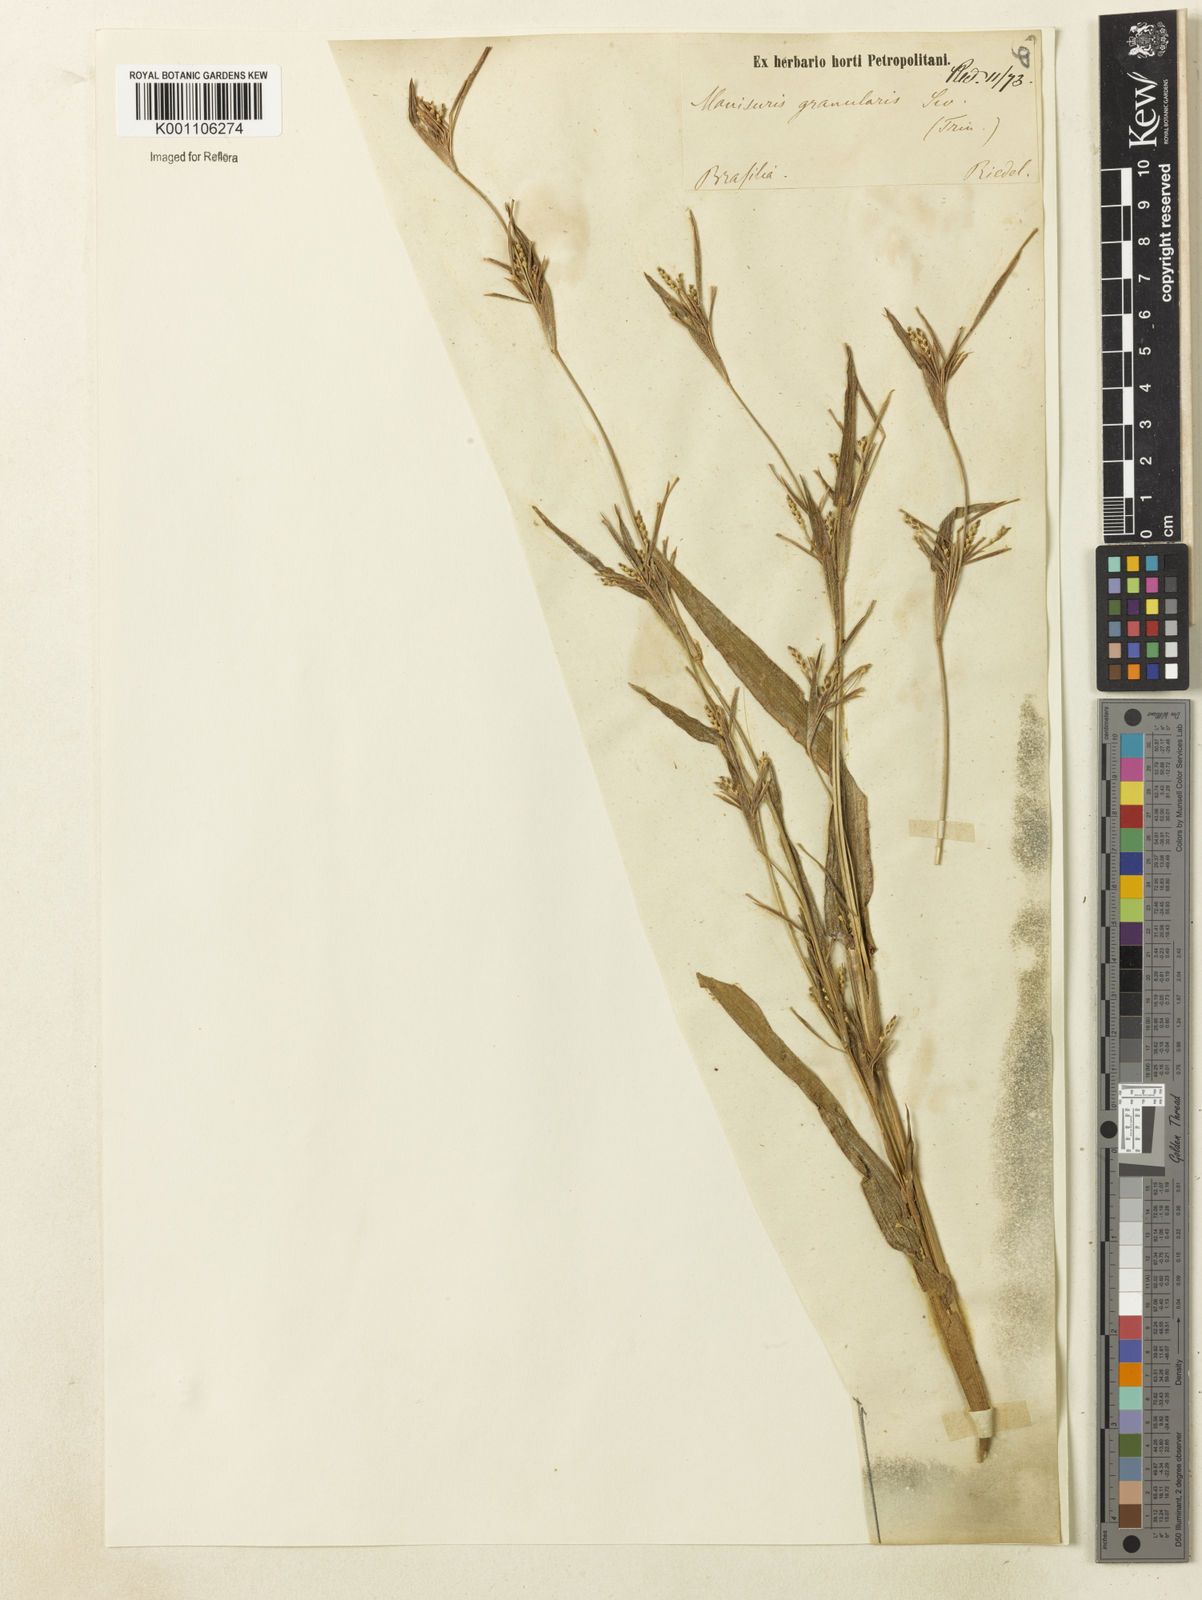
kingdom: Plantae
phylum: Tracheophyta
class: Liliopsida
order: Poales
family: Poaceae
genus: Hackelochloa
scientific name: Hackelochloa granularis
